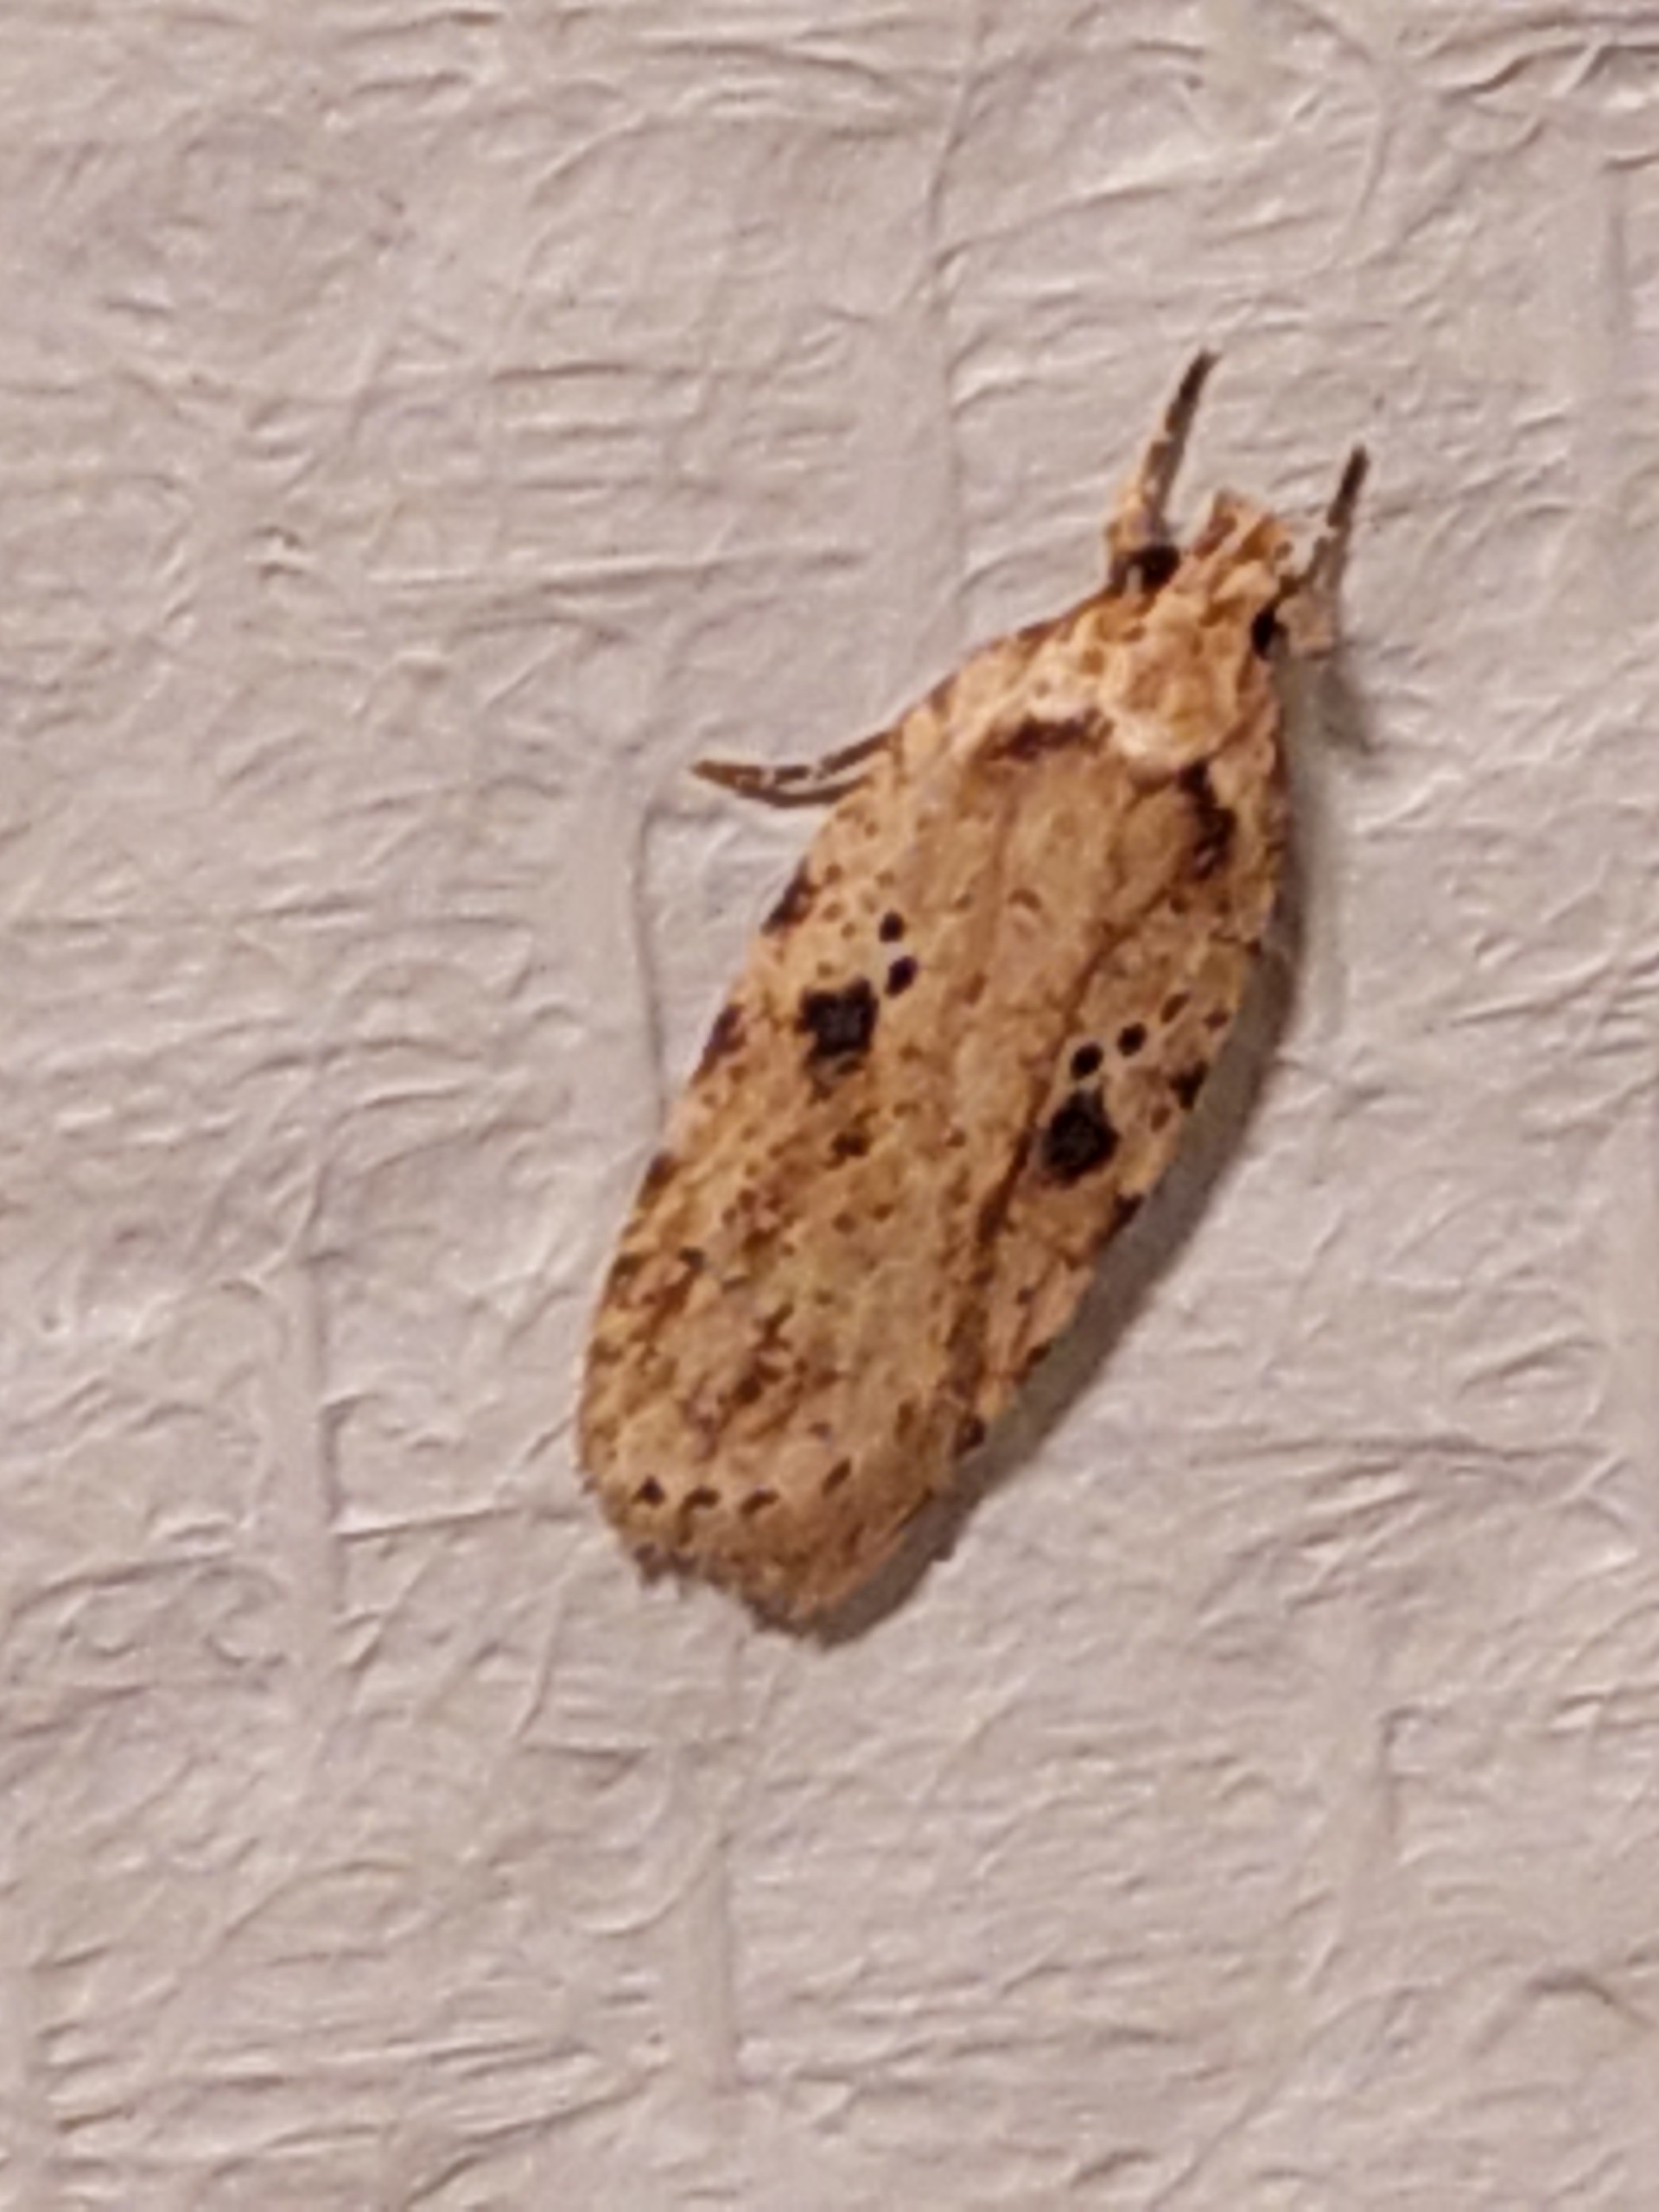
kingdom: Animalia
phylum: Arthropoda
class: Insecta
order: Lepidoptera
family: Depressariidae
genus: Agonopterix
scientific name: Agonopterix arenella
